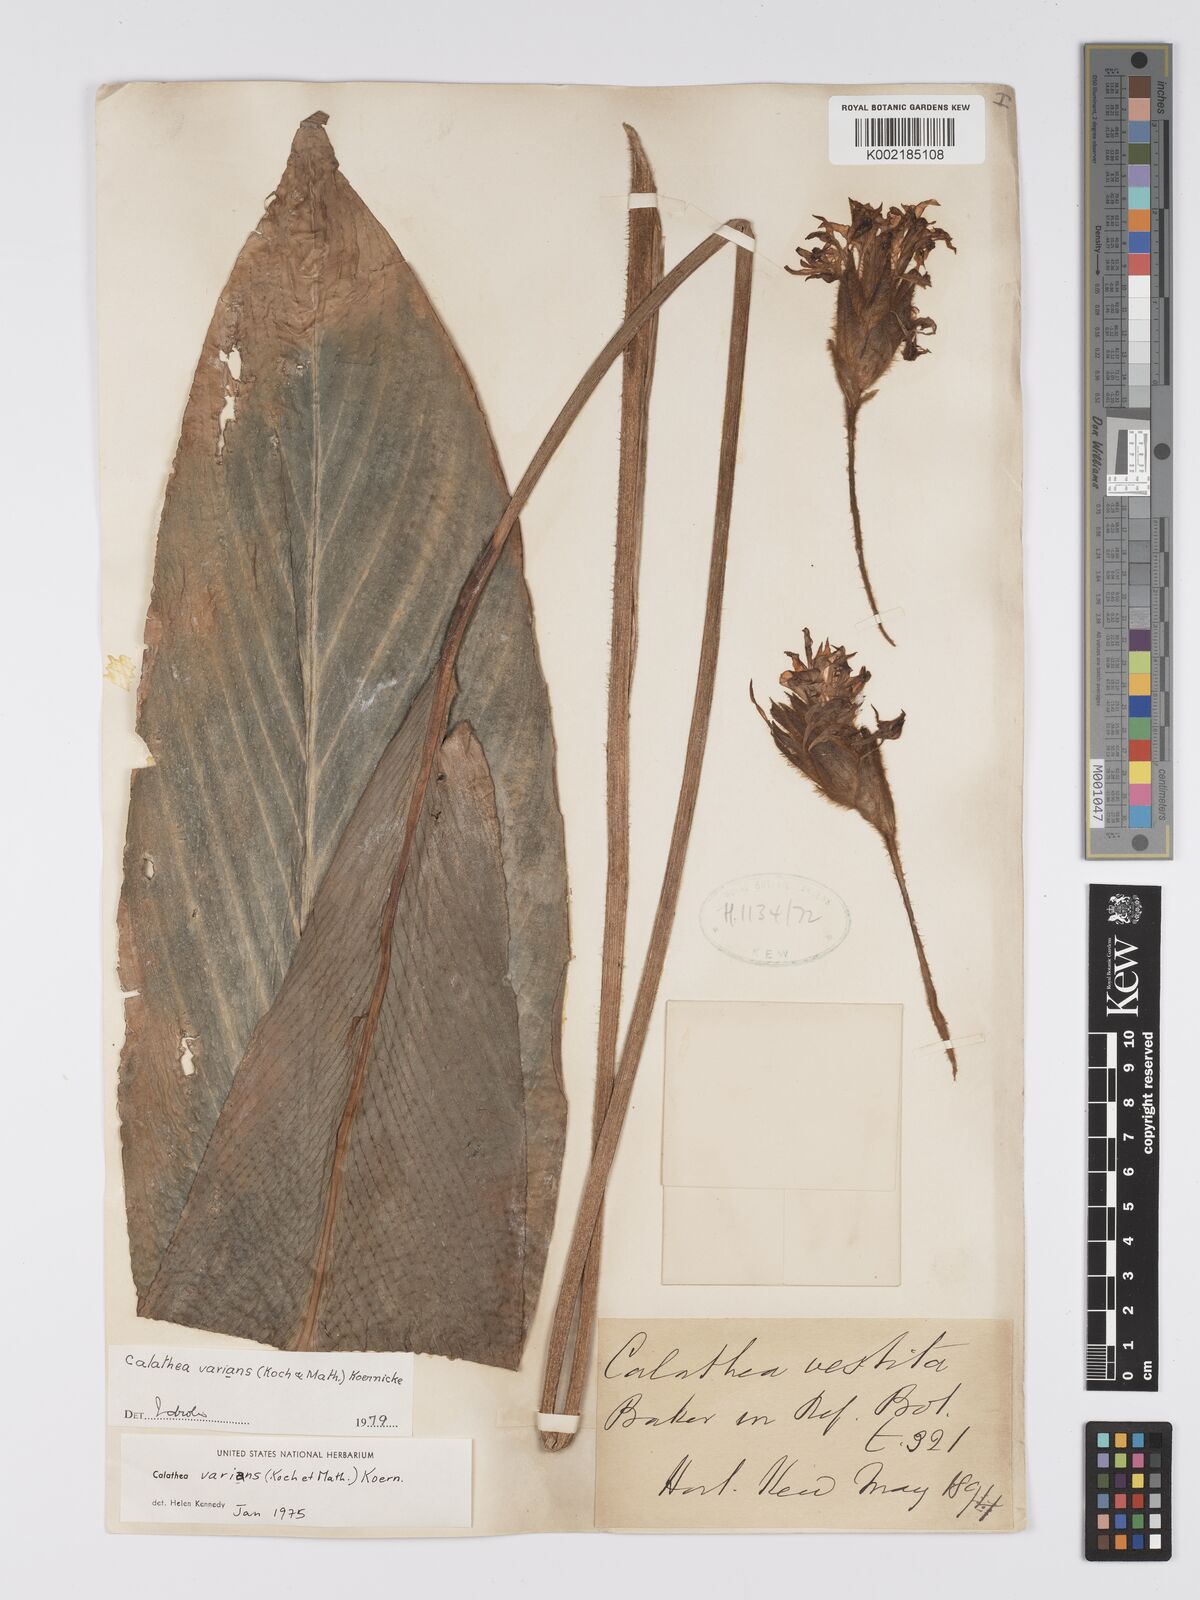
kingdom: Plantae
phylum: Tracheophyta
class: Liliopsida
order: Zingiberales
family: Marantaceae
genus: Goeppertia
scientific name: Goeppertia varians
